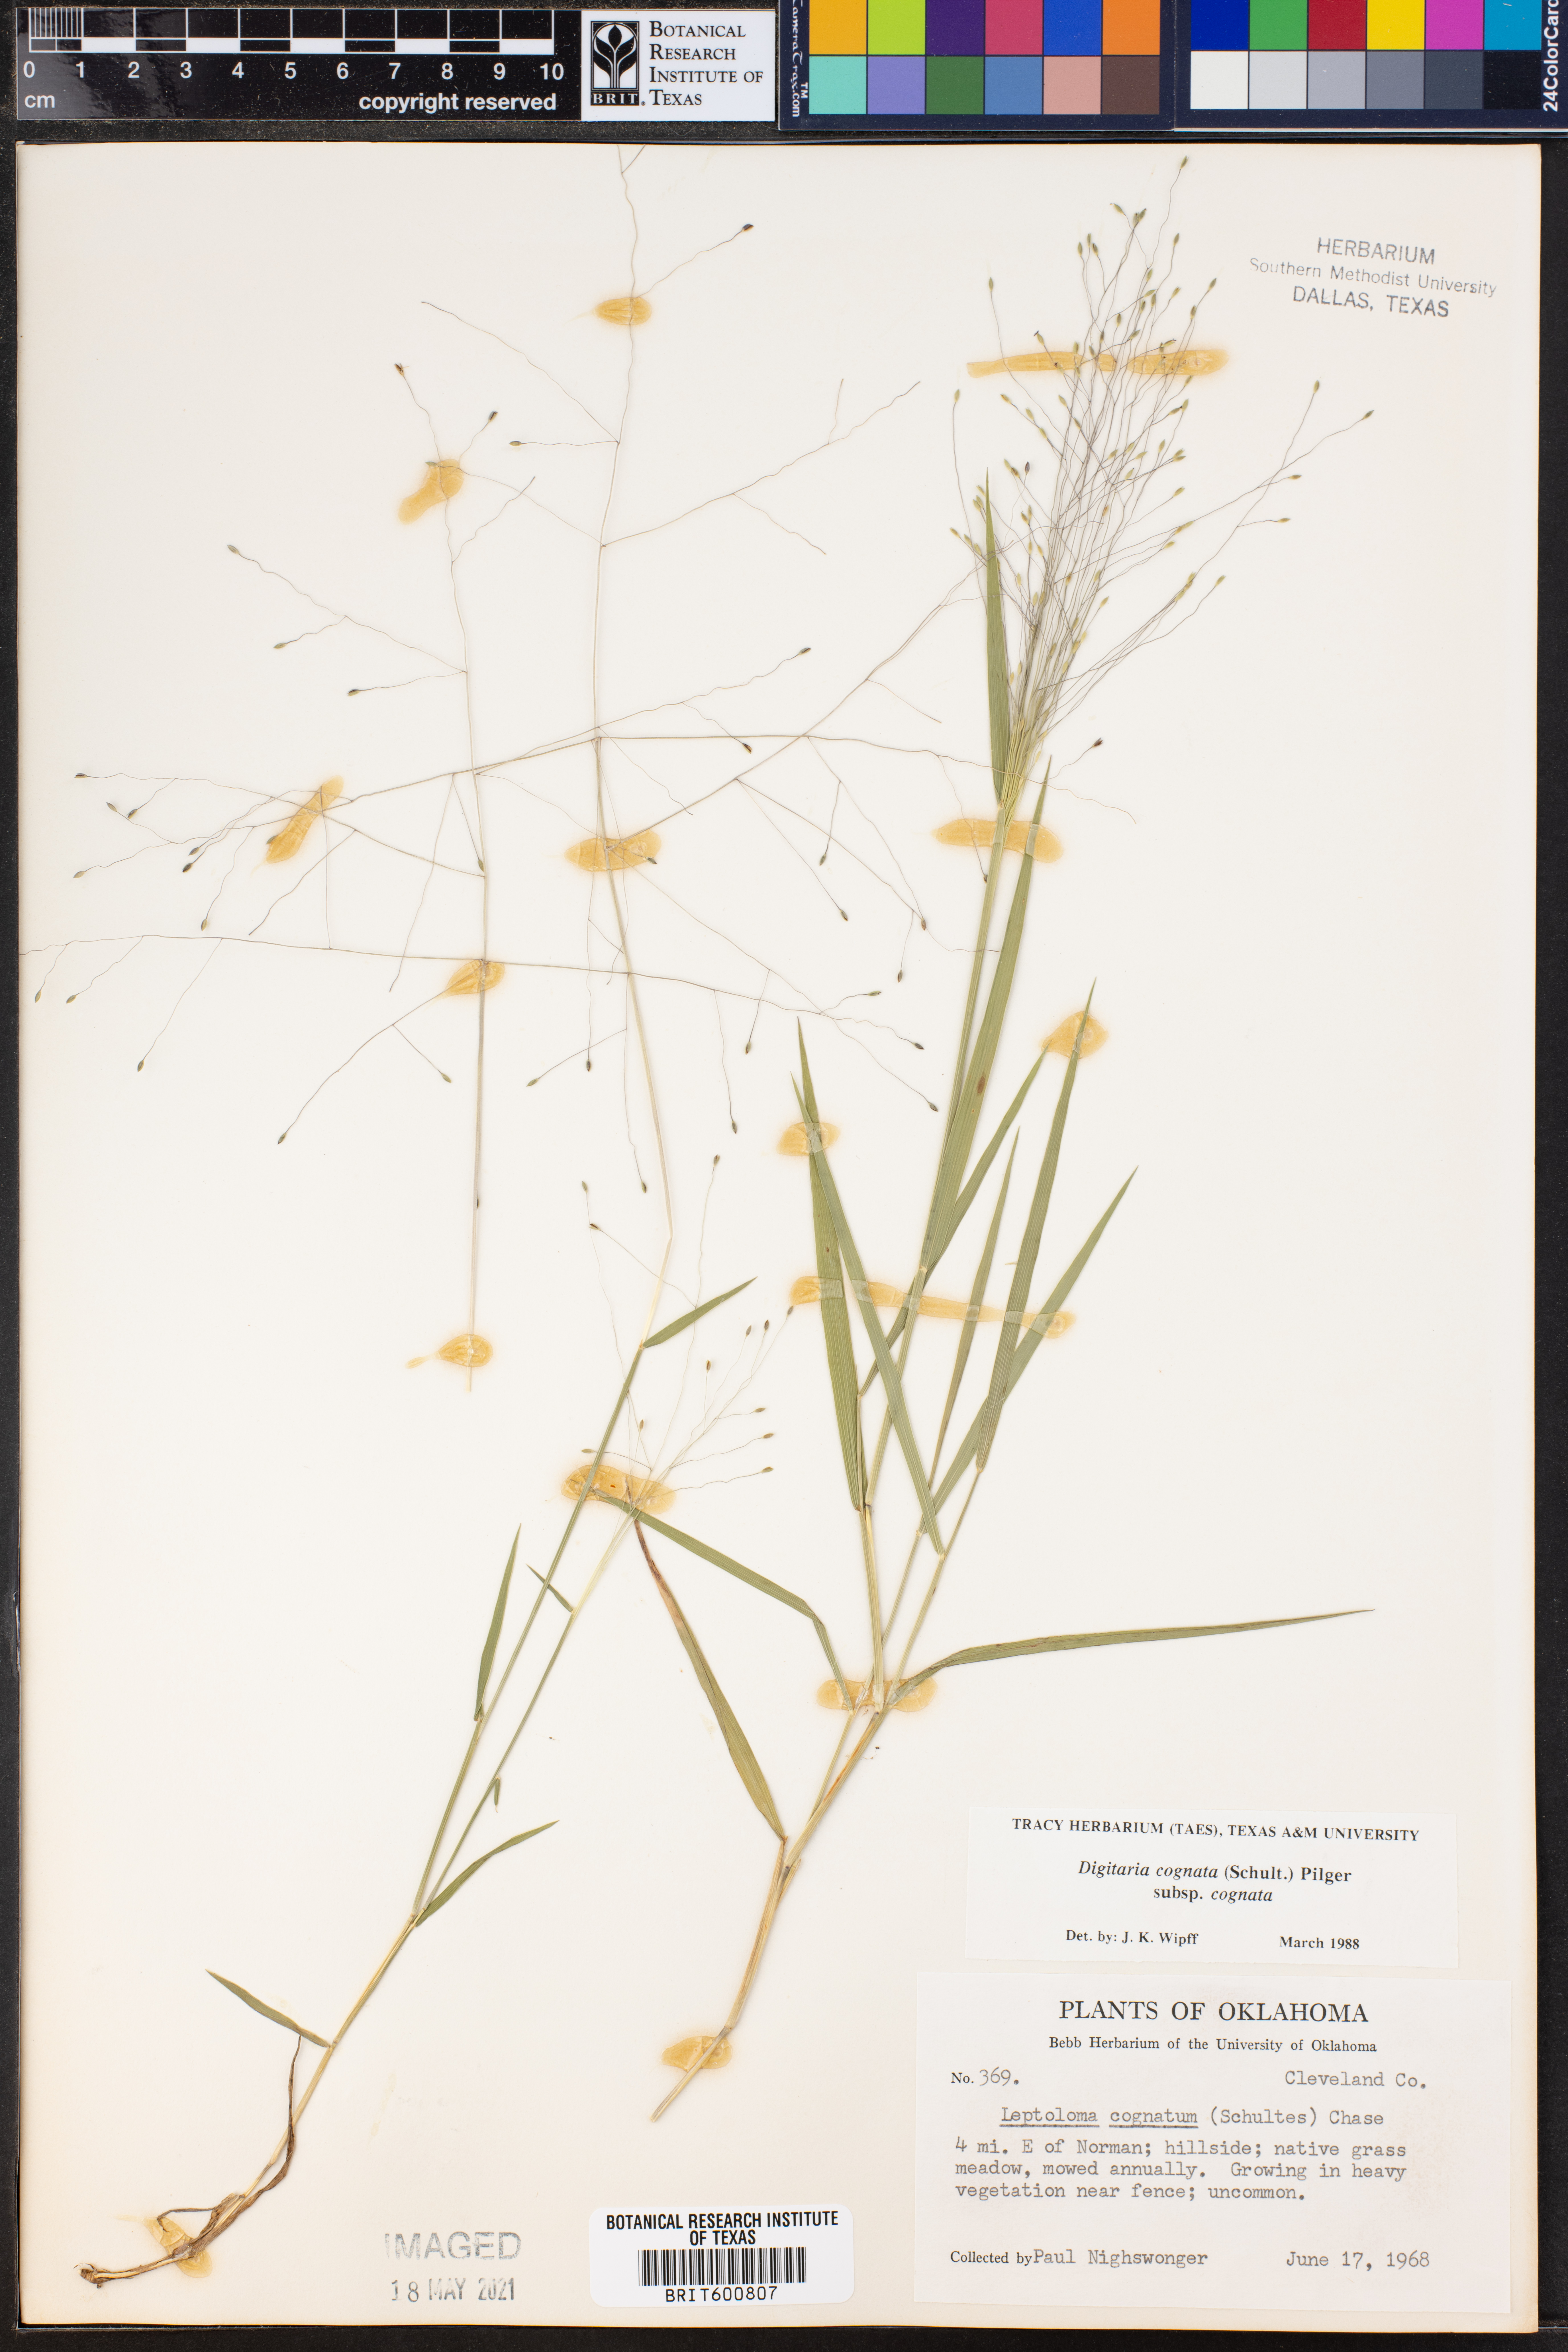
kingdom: Plantae
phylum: Tracheophyta
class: Liliopsida
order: Poales
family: Poaceae
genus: Digitaria
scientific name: Digitaria cognata
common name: Fall witchgrass
